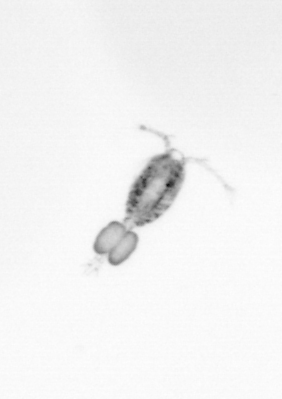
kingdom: Animalia
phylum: Arthropoda
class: Copepoda
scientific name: Copepoda
